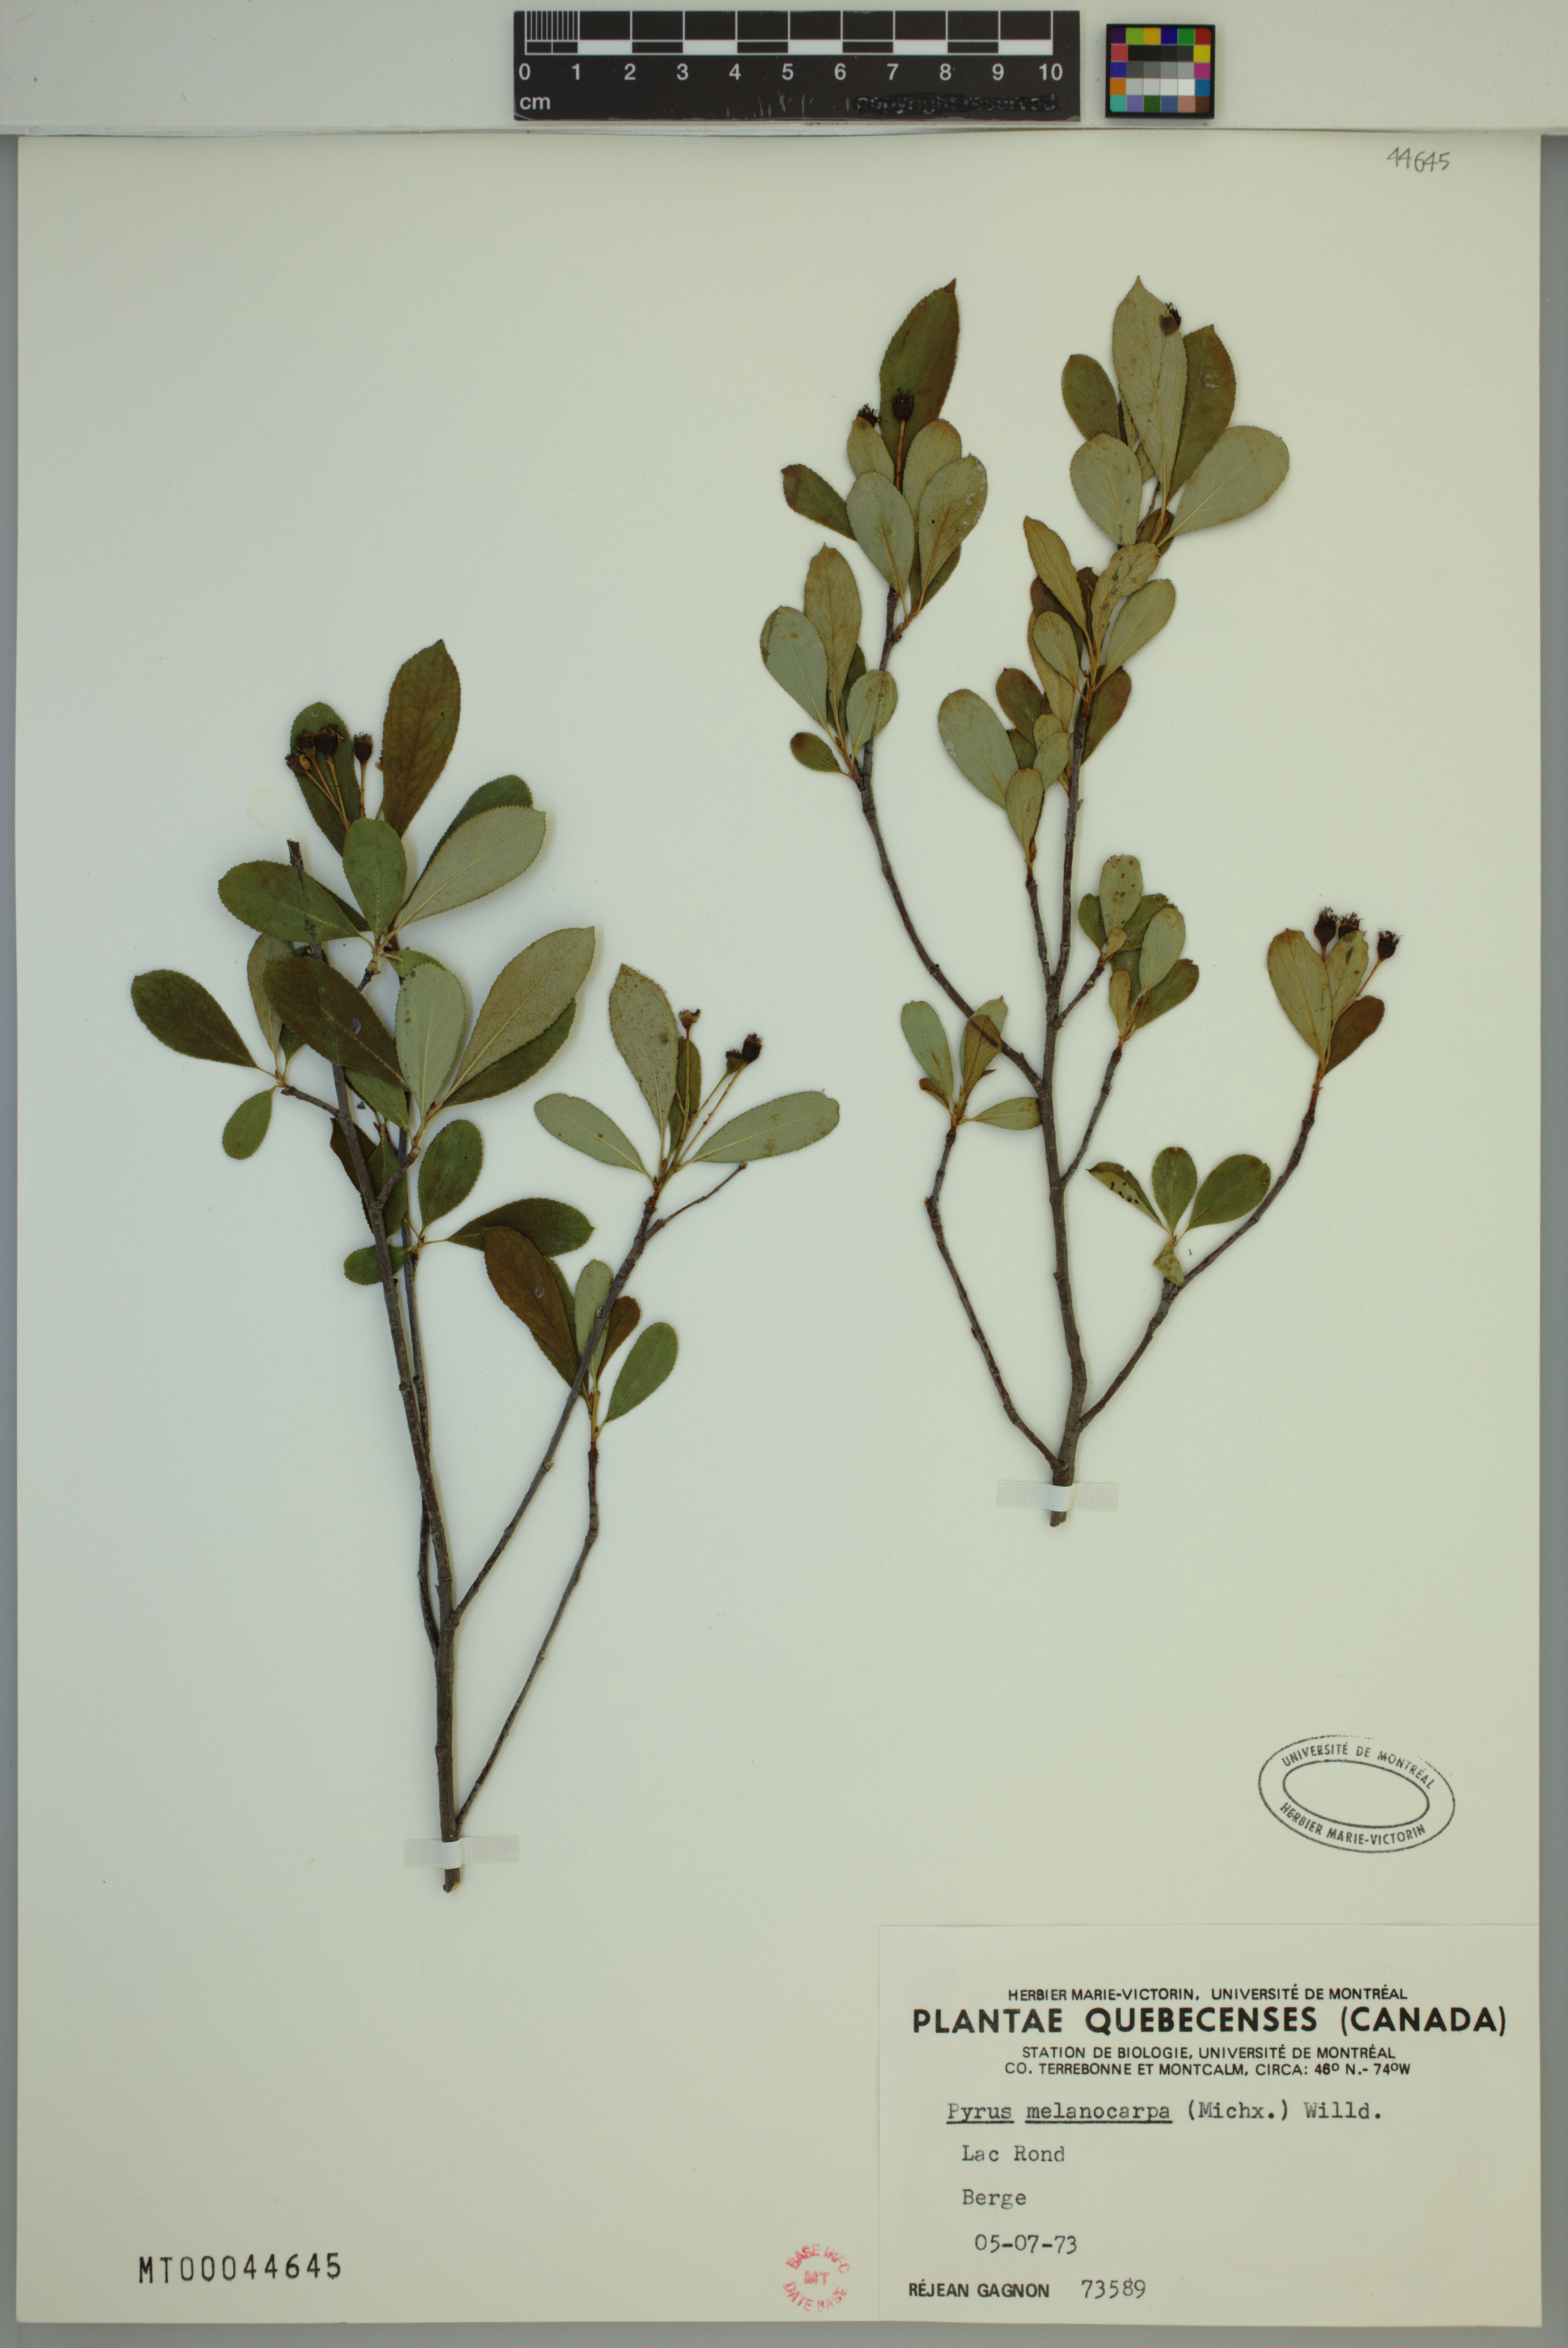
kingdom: Plantae
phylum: Tracheophyta
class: Magnoliopsida
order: Rosales
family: Rosaceae
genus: Aronia
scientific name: Aronia melanocarpa
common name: Black chokeberry
